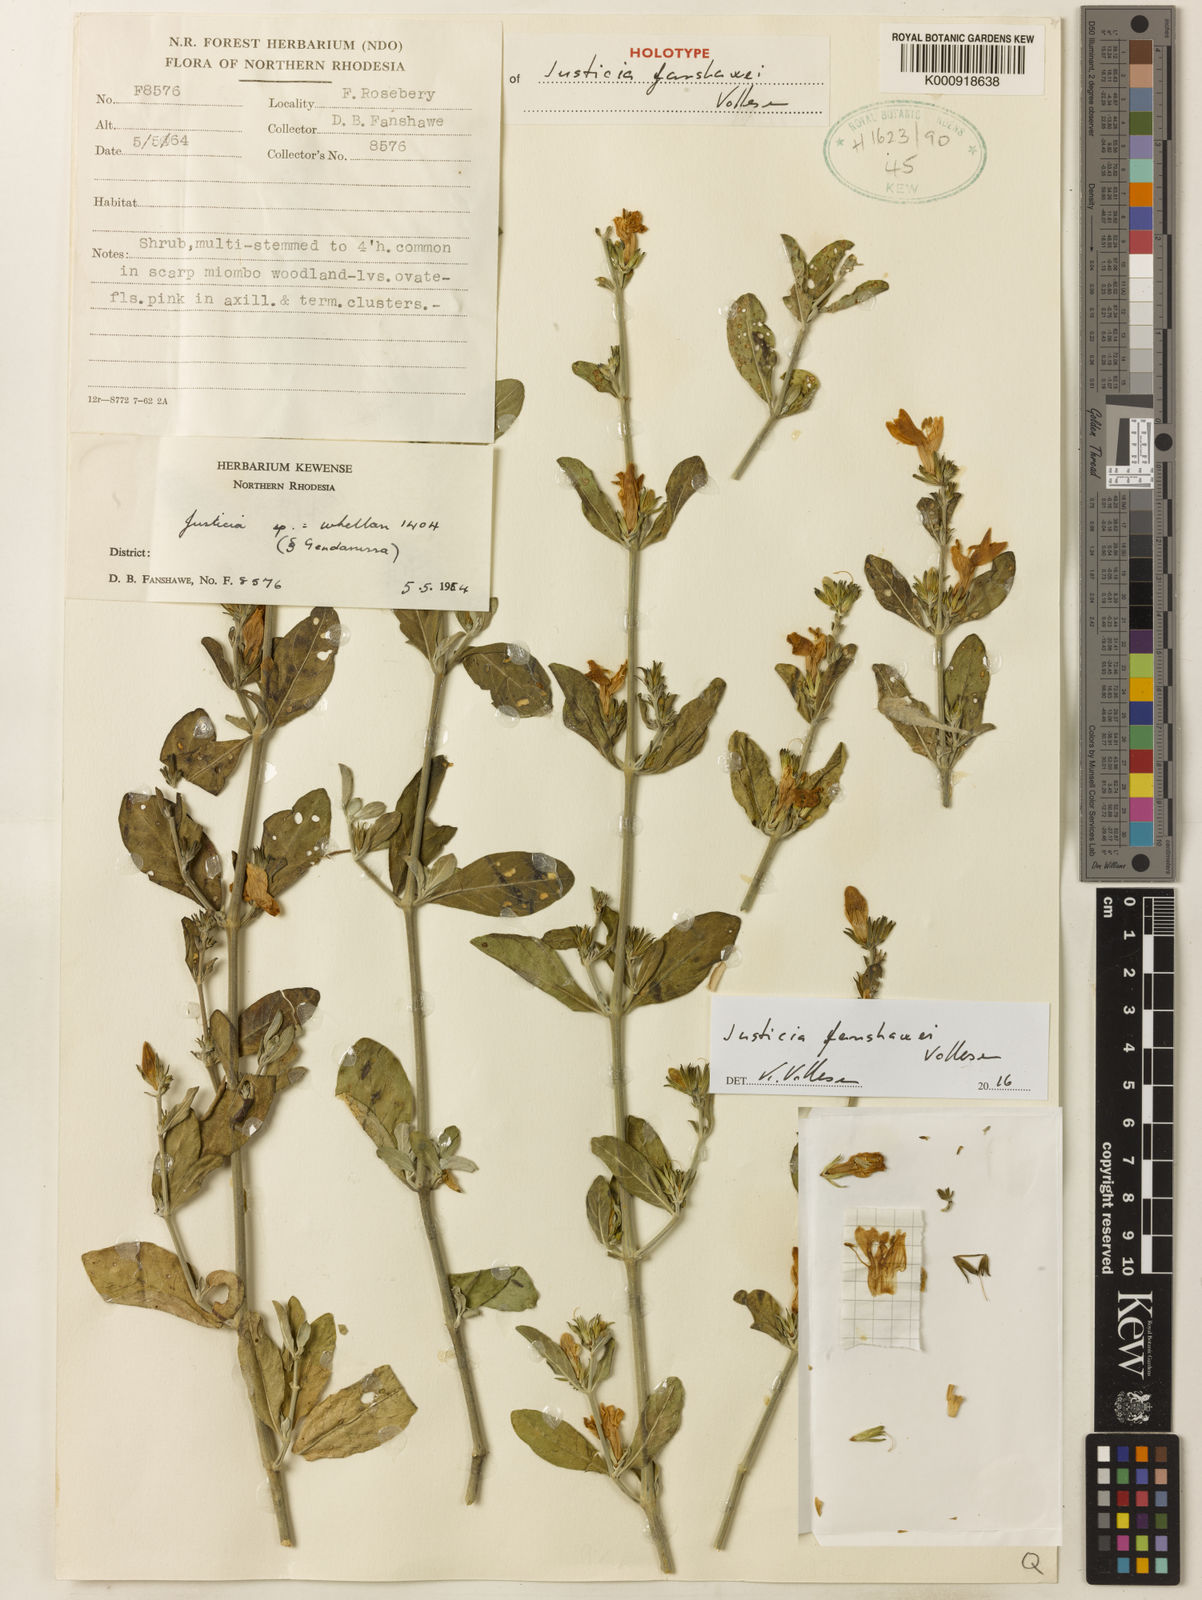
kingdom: Plantae
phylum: Tracheophyta
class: Magnoliopsida
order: Lamiales
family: Acanthaceae
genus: Monechma
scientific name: Monechma fanshawei
